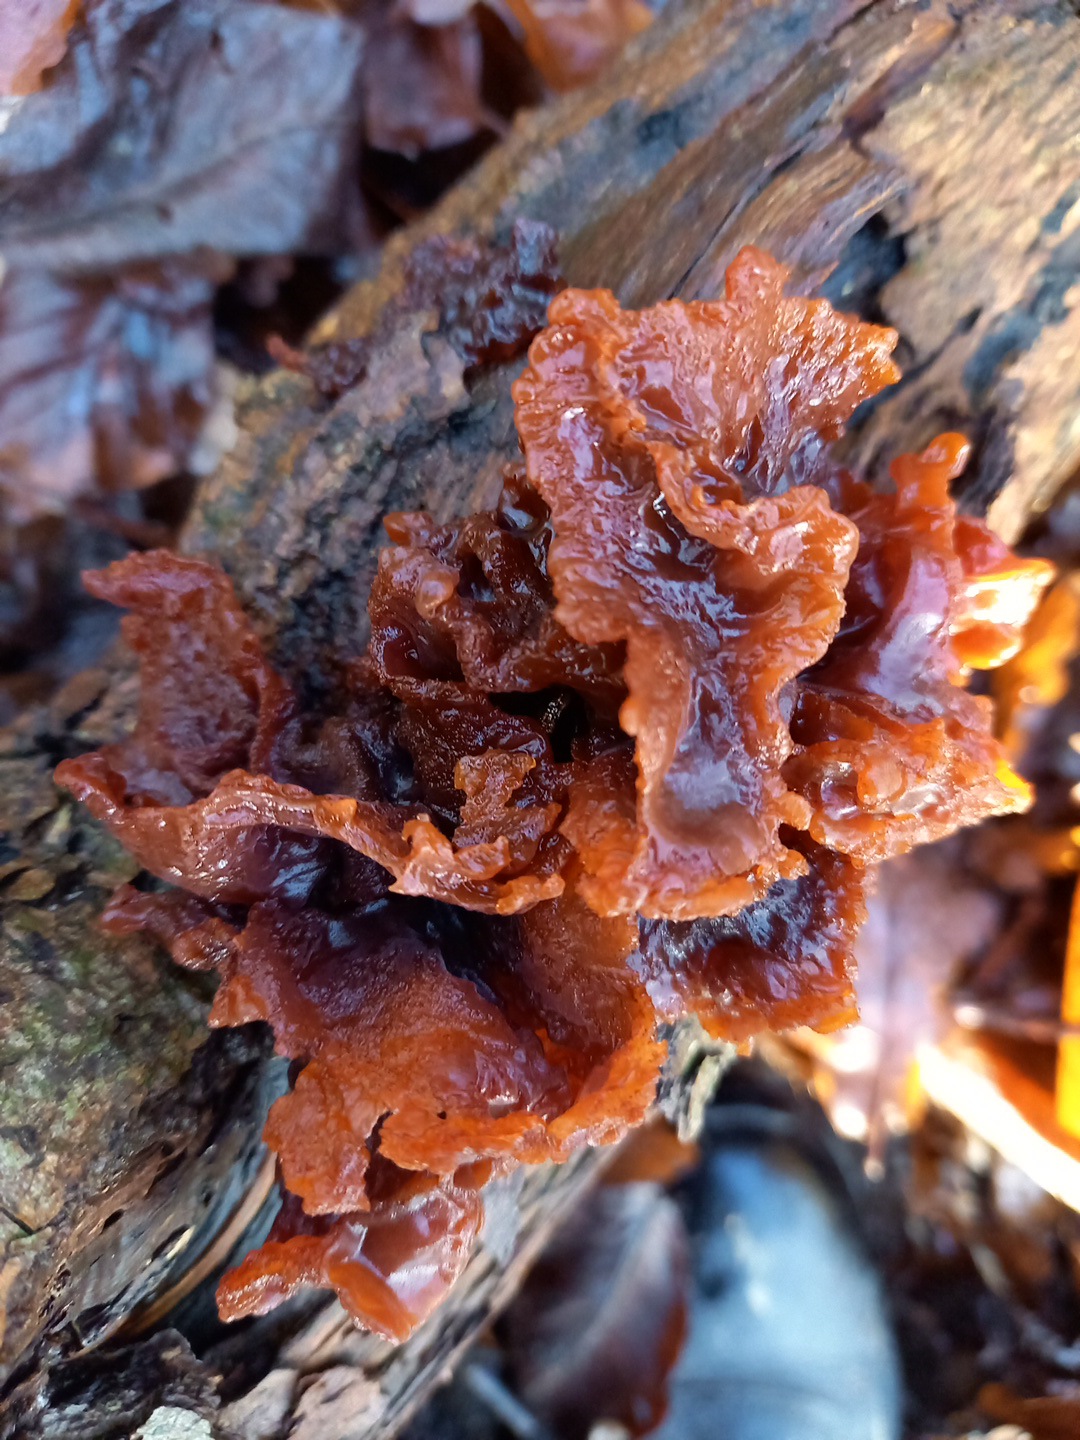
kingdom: Fungi
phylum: Basidiomycota
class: Tremellomycetes
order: Tremellales
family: Tremellaceae
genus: Phaeotremella
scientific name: Phaeotremella frondosa
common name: kæmpe-bævresvamp
